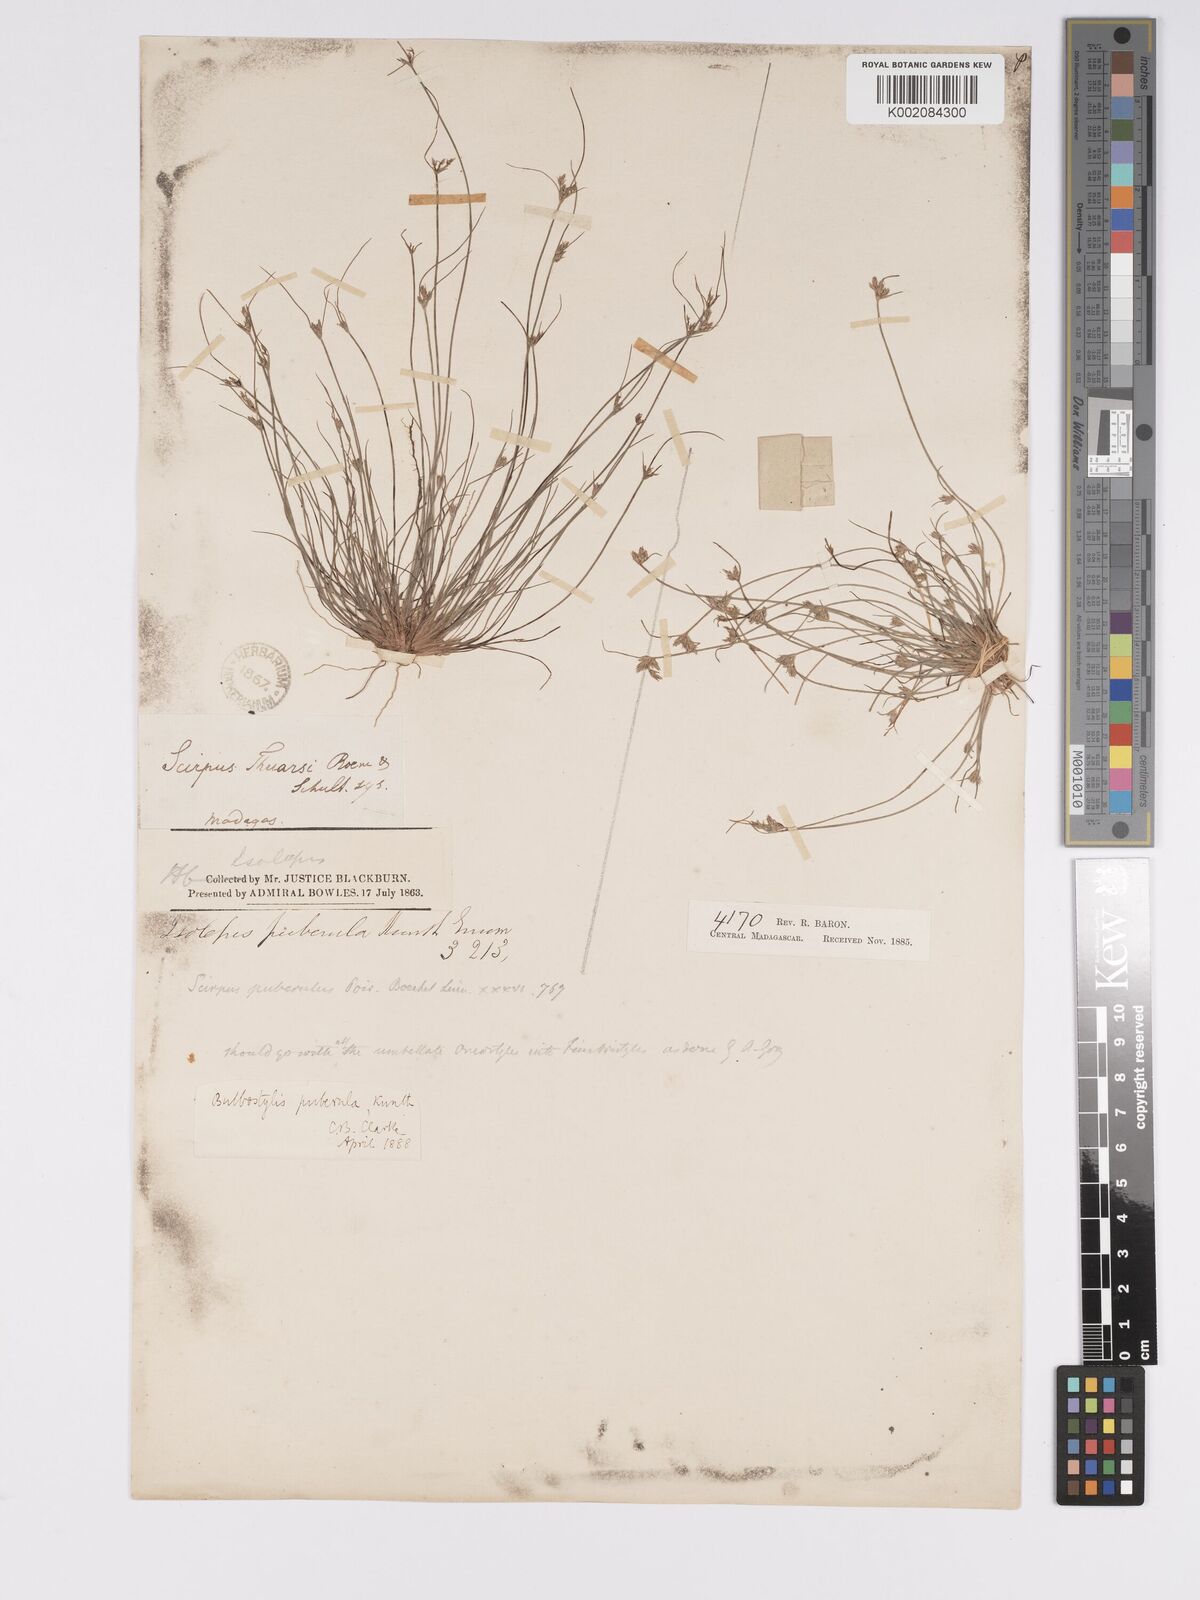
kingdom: Plantae
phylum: Tracheophyta
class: Liliopsida
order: Poales
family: Cyperaceae
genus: Bulbostylis
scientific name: Bulbostylis thouarsii
